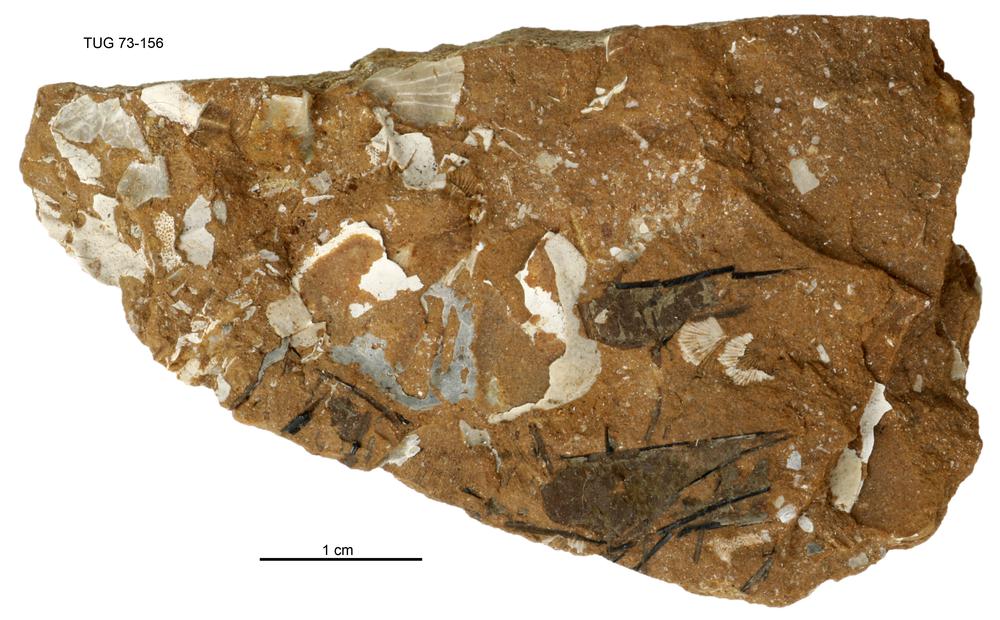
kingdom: Animalia
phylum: Cnidaria
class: Scyphozoa
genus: Sphenothallus
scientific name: Sphenothallus
